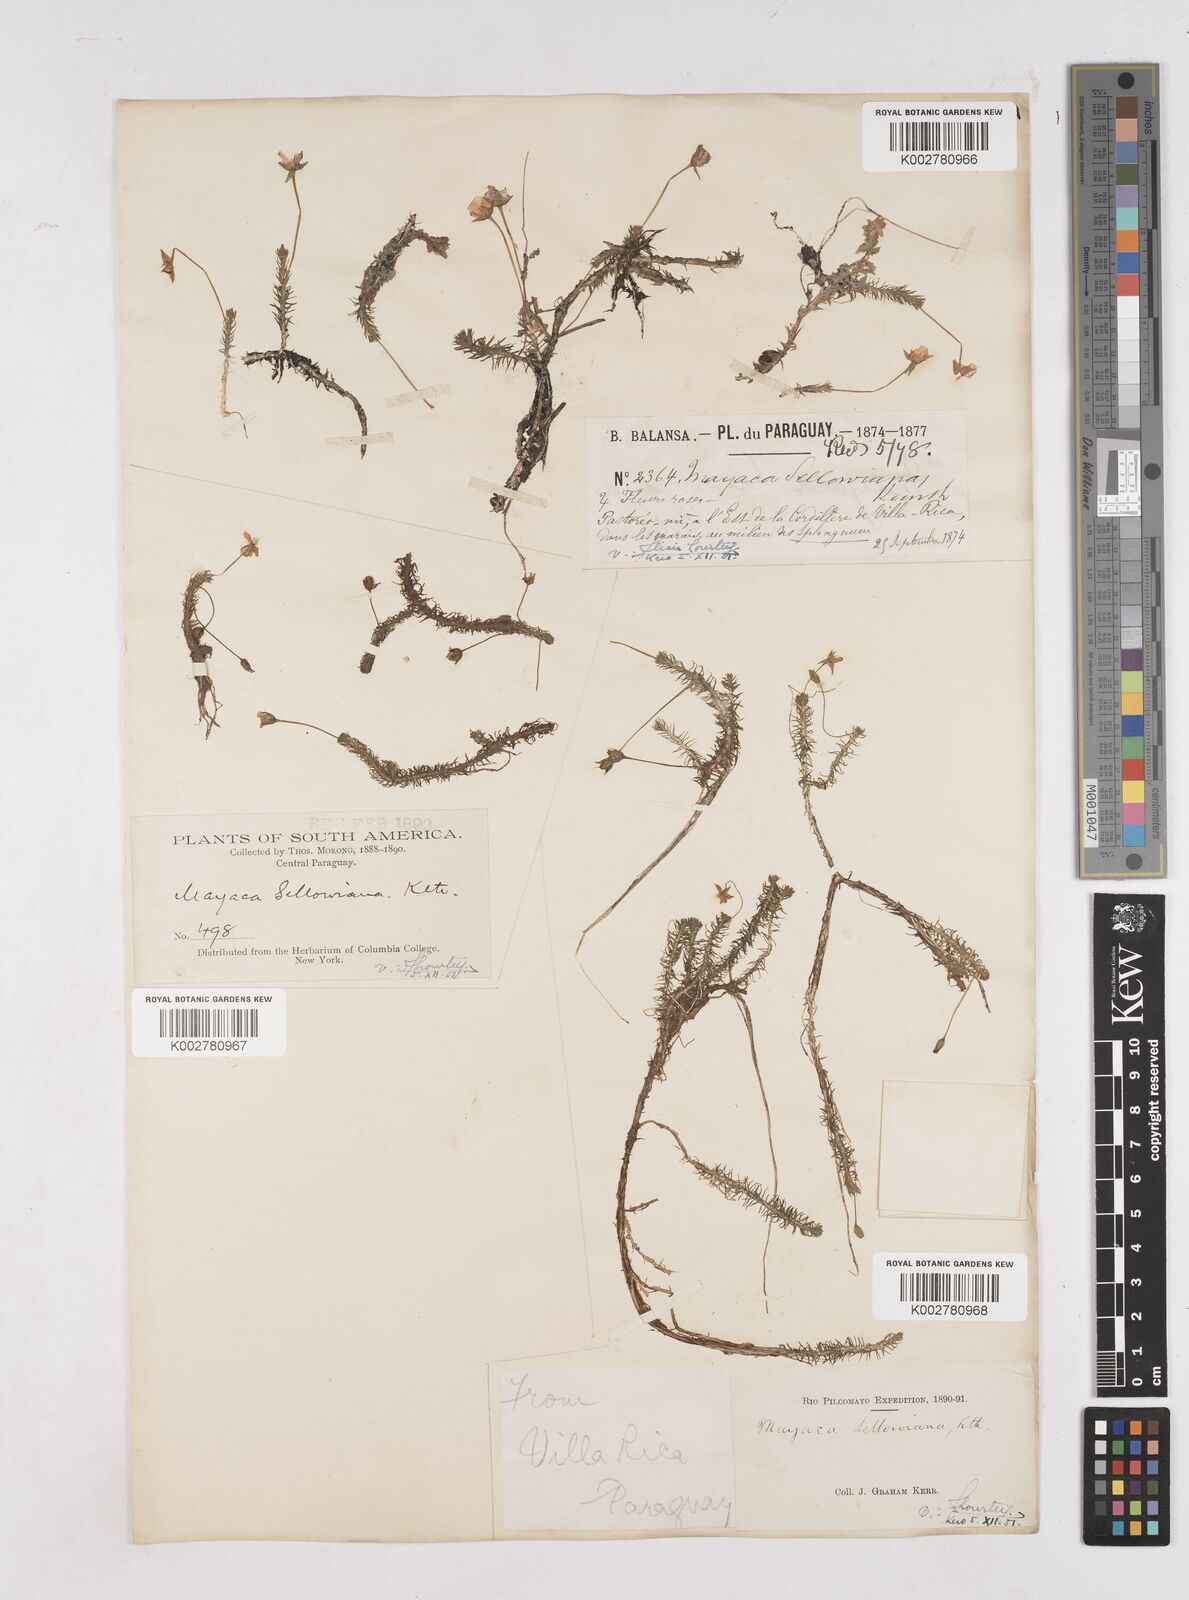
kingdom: Plantae
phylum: Tracheophyta
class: Liliopsida
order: Poales
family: Mayacaceae
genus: Mayaca
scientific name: Mayaca sellowiana
